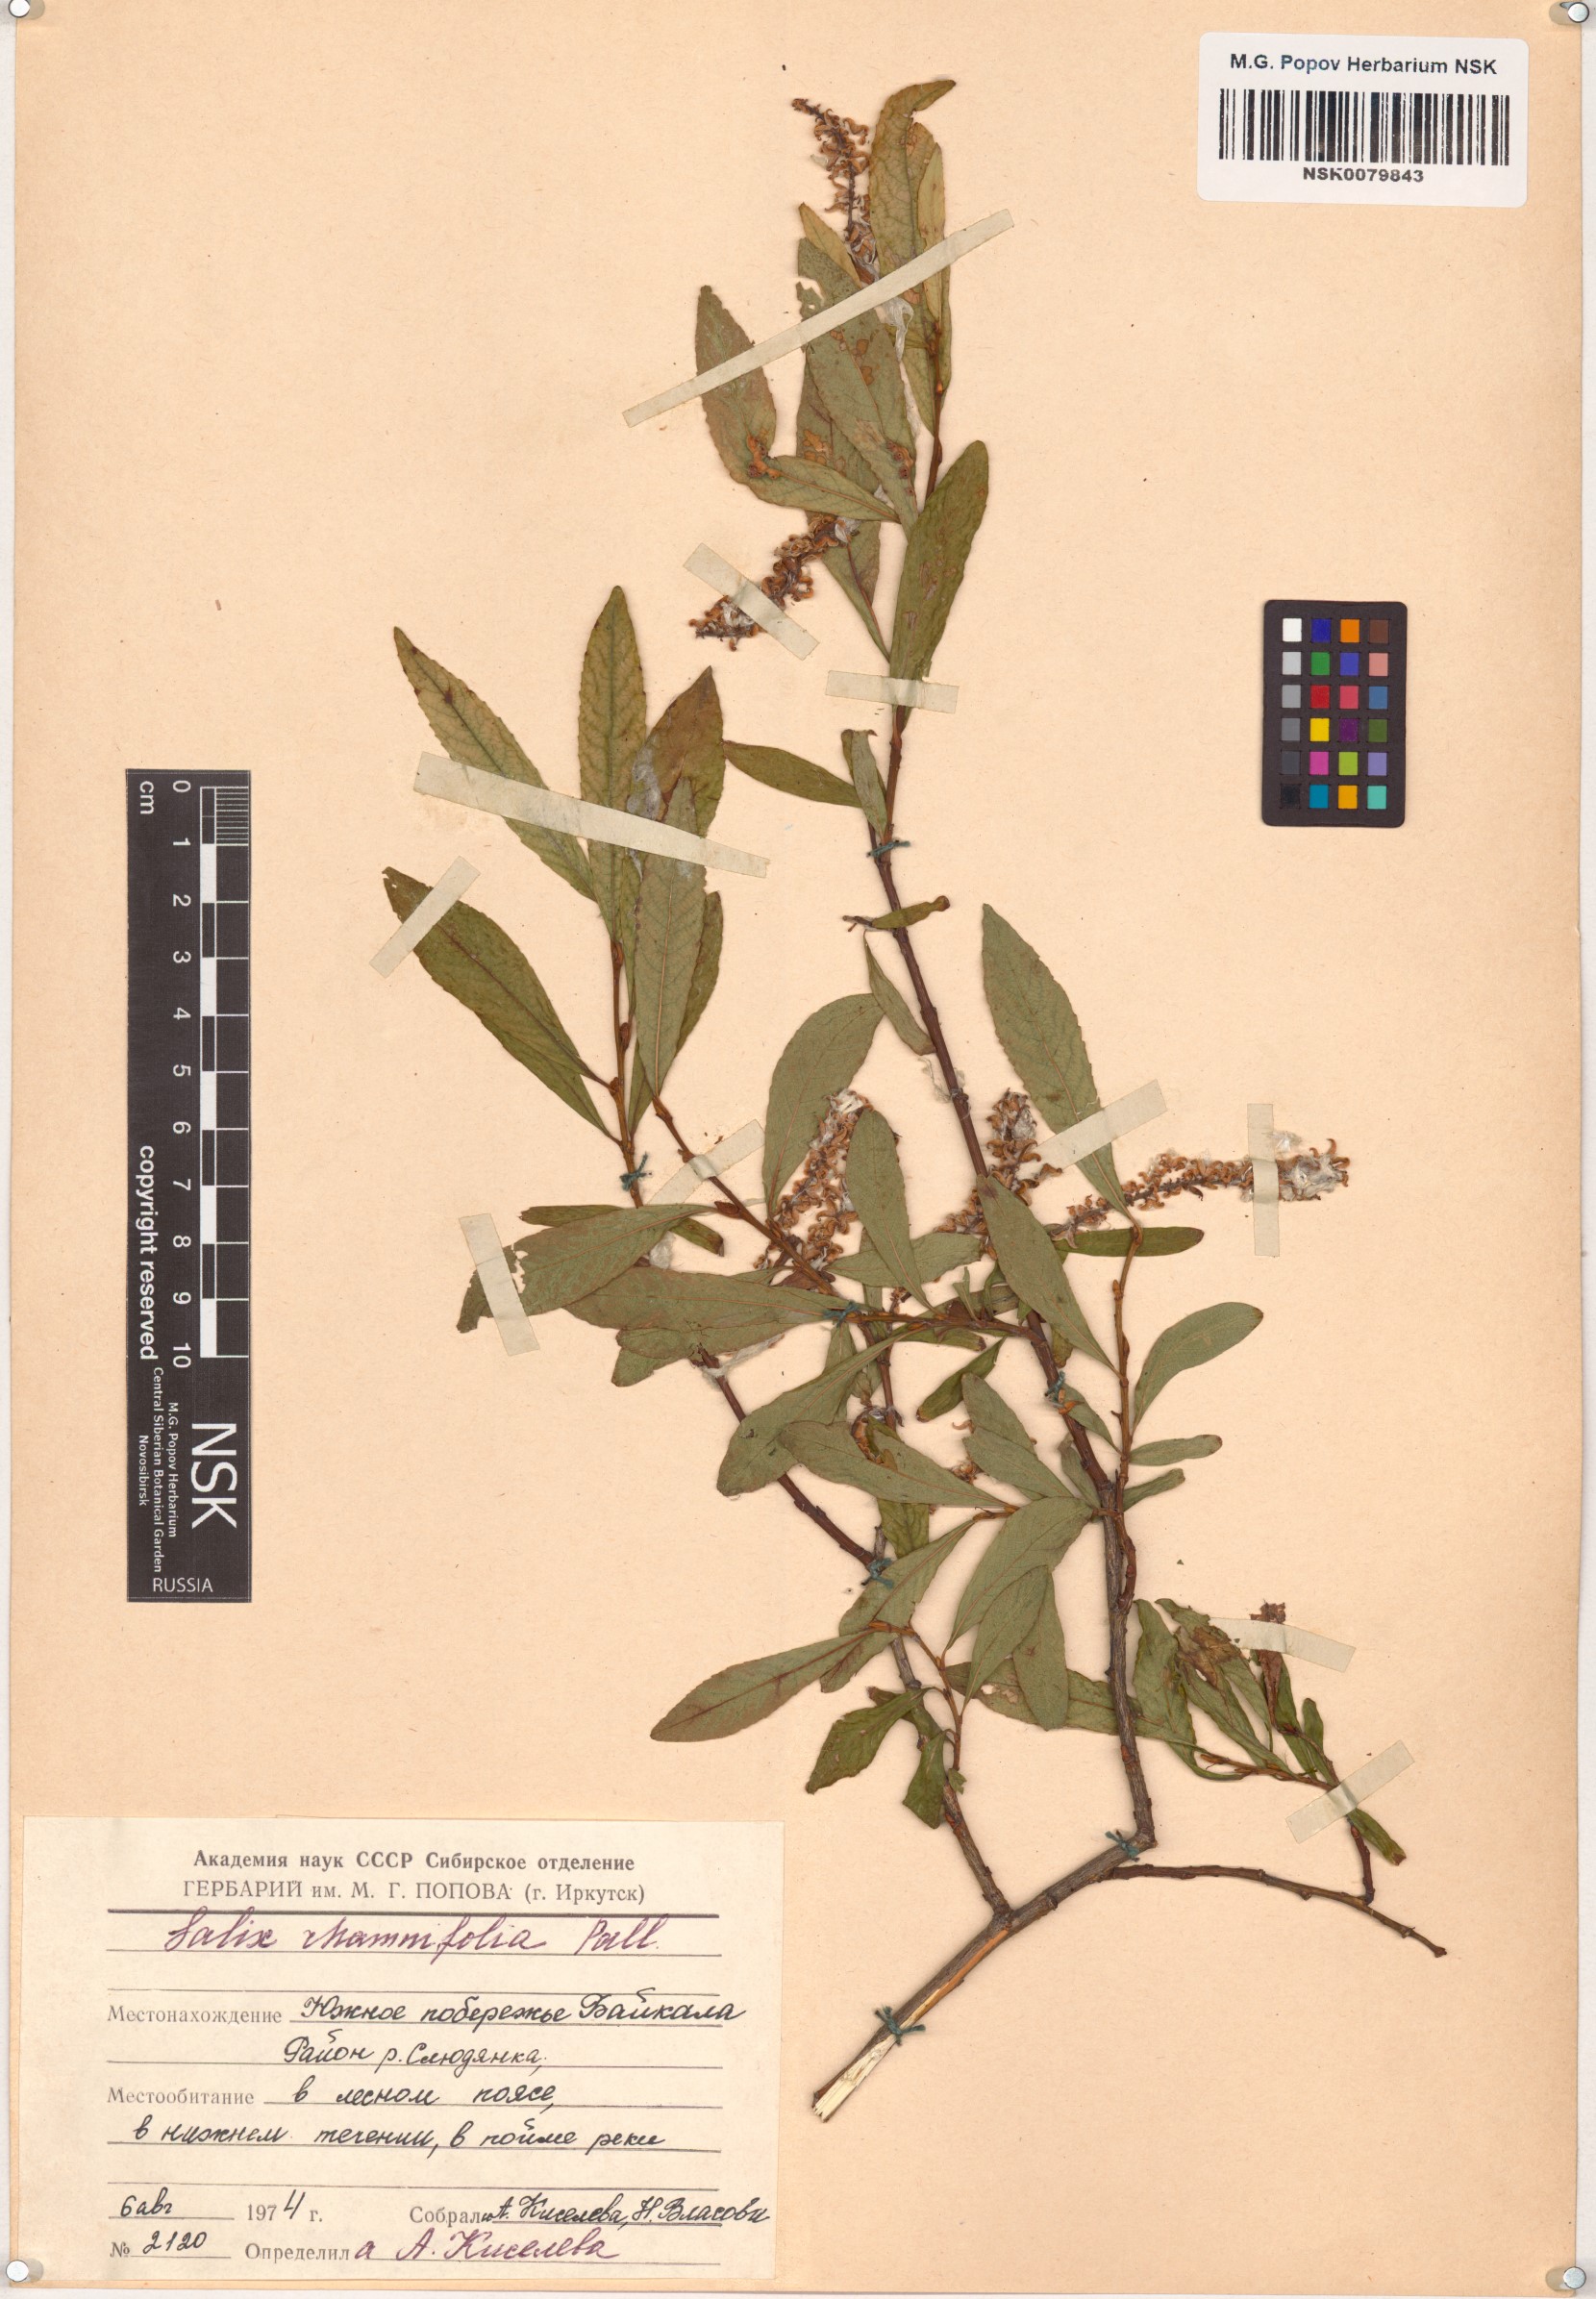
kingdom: Plantae
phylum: Tracheophyta
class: Magnoliopsida
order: Malpighiales
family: Salicaceae
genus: Salix
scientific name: Salix rhamnifolia
